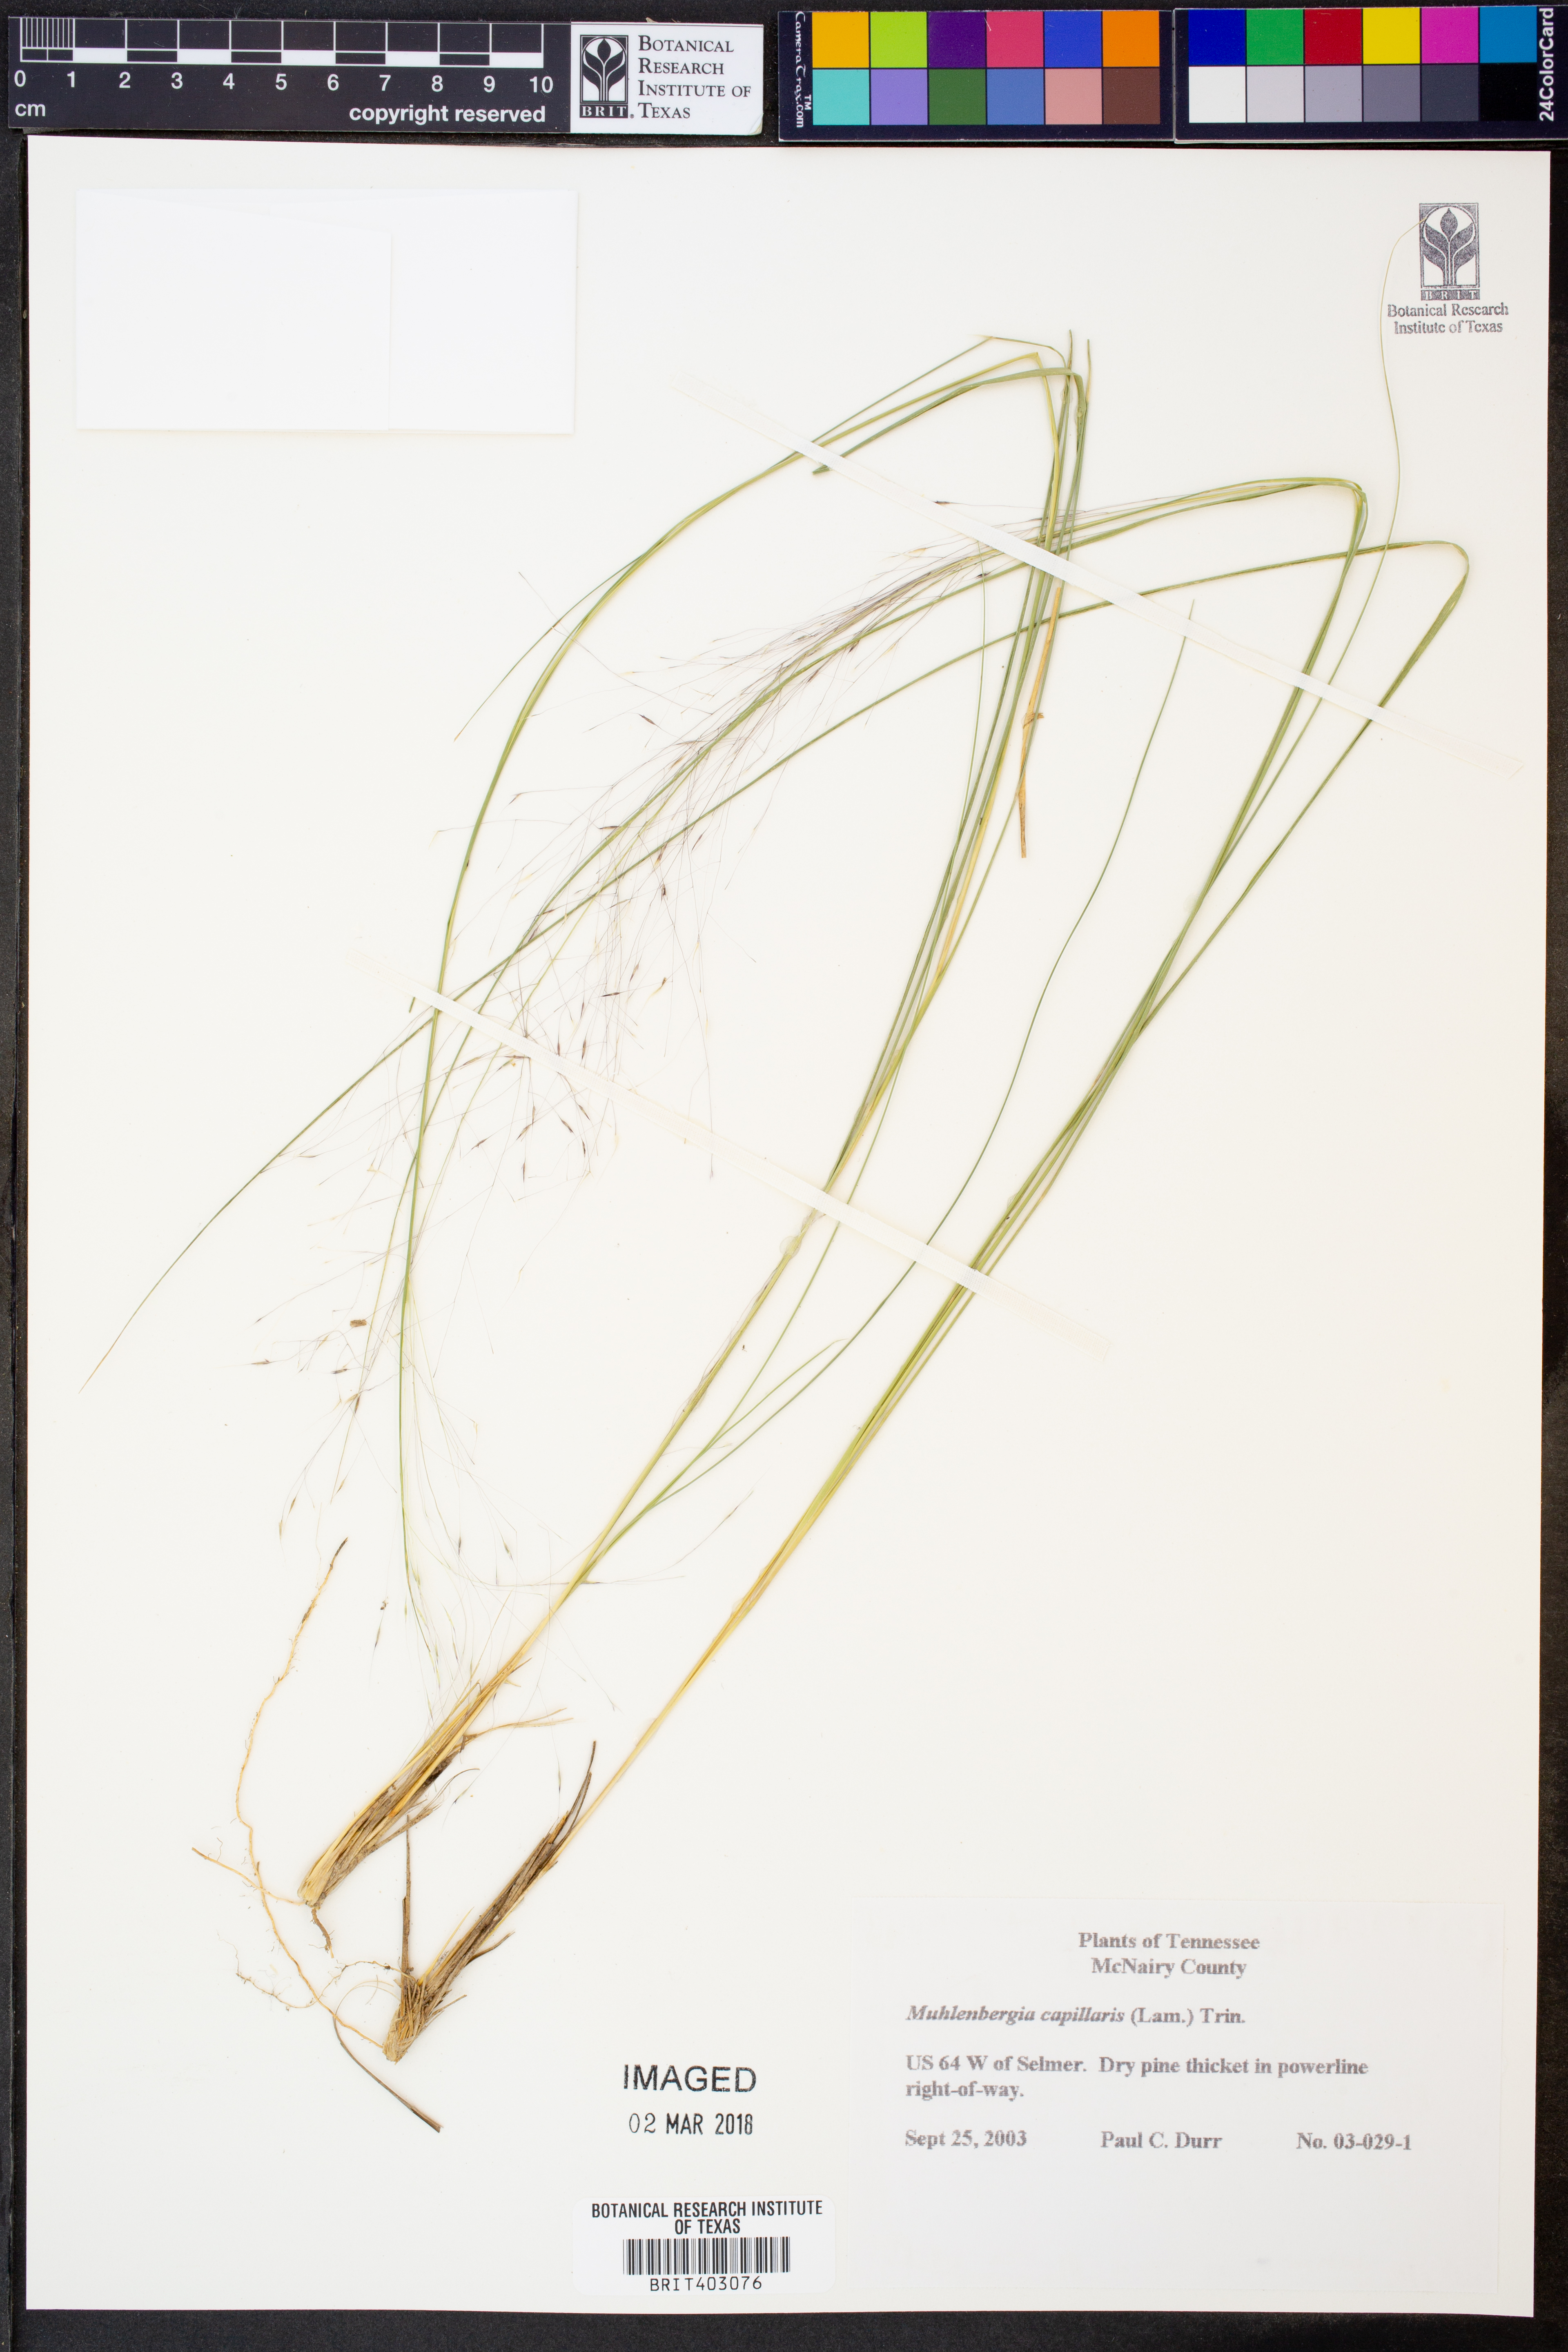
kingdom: Plantae
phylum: Tracheophyta
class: Liliopsida
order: Poales
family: Poaceae
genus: Muhlenbergia
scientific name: Muhlenbergia capillaris
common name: Purple grass
